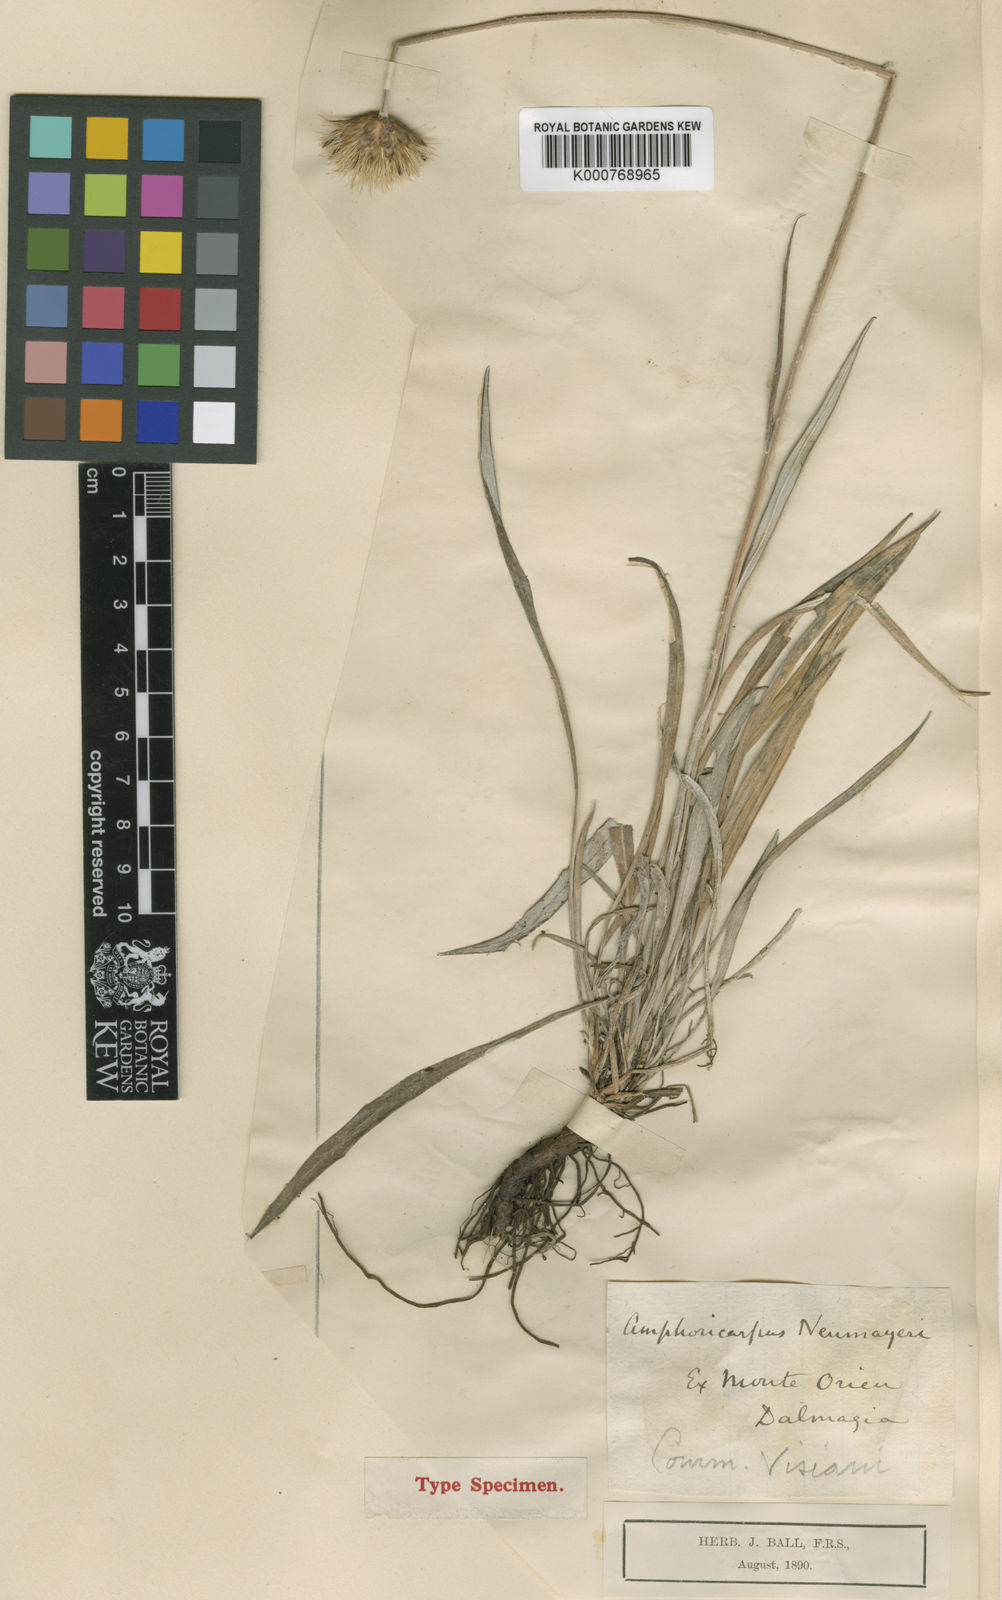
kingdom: Plantae
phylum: Tracheophyta
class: Magnoliopsida
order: Asterales
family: Asteraceae
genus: Amphoricarpos
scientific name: Amphoricarpos neumayerianus
